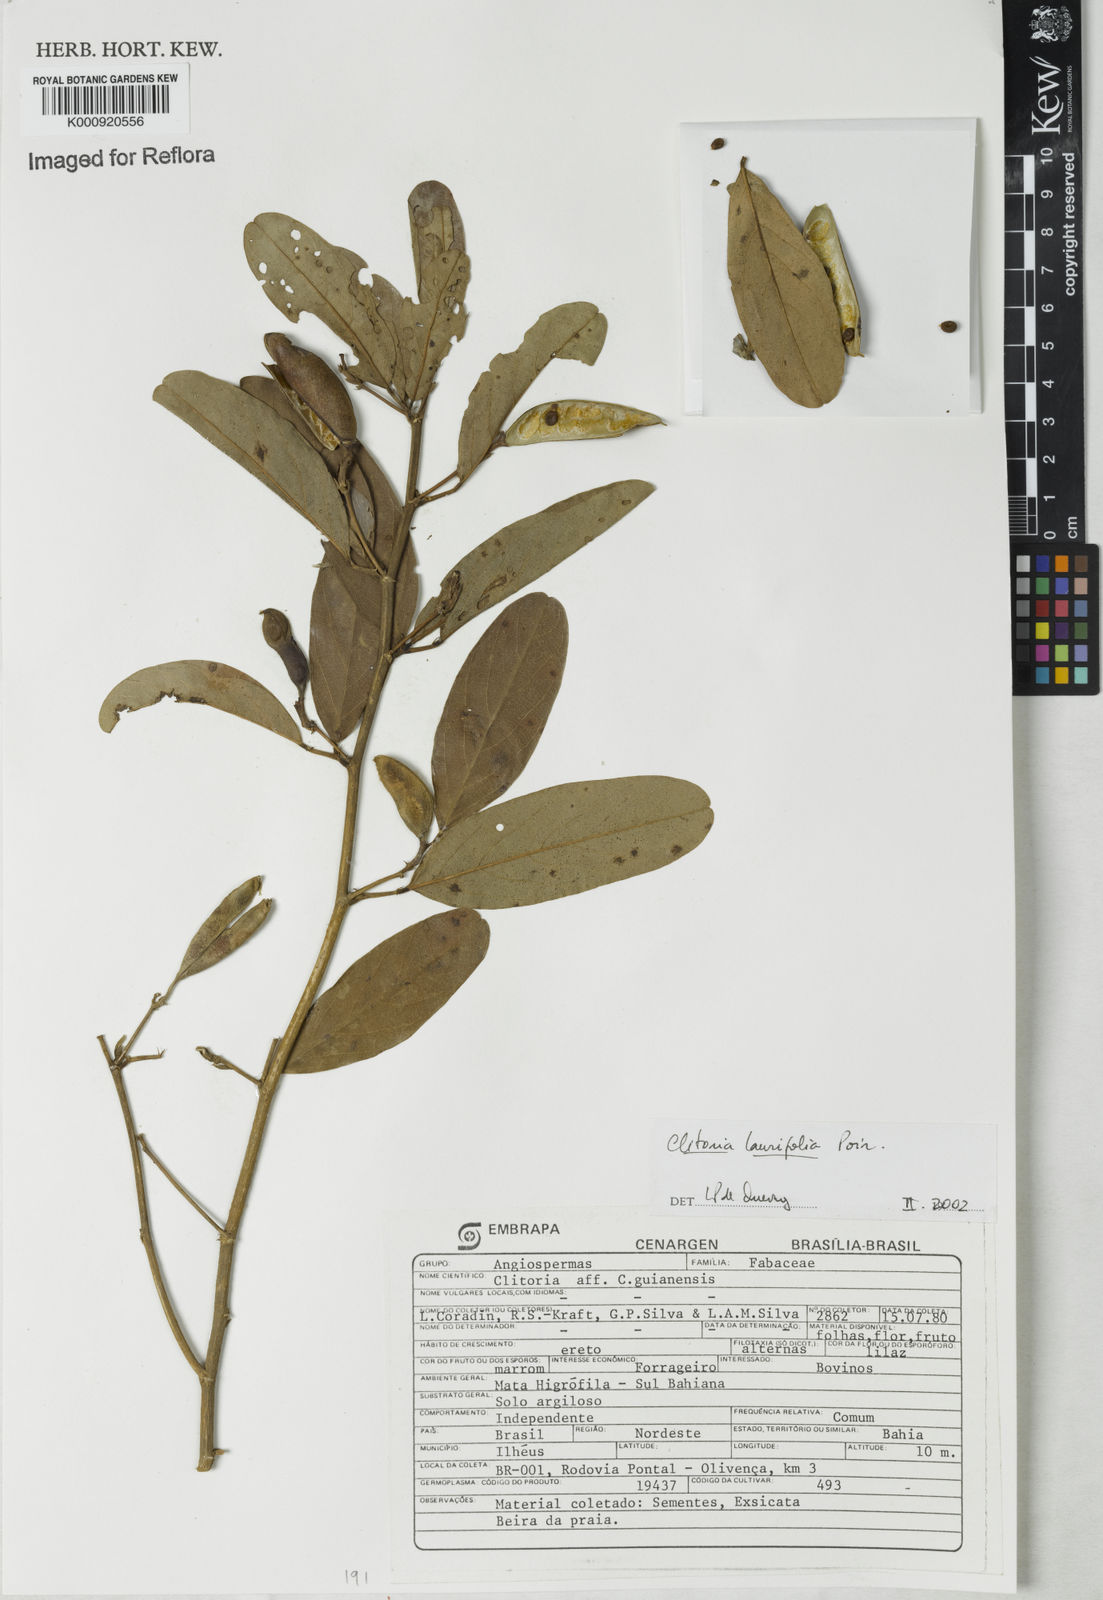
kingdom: Plantae
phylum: Tracheophyta
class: Magnoliopsida
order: Fabales
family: Fabaceae
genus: Clitoria
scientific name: Clitoria laurifolia
